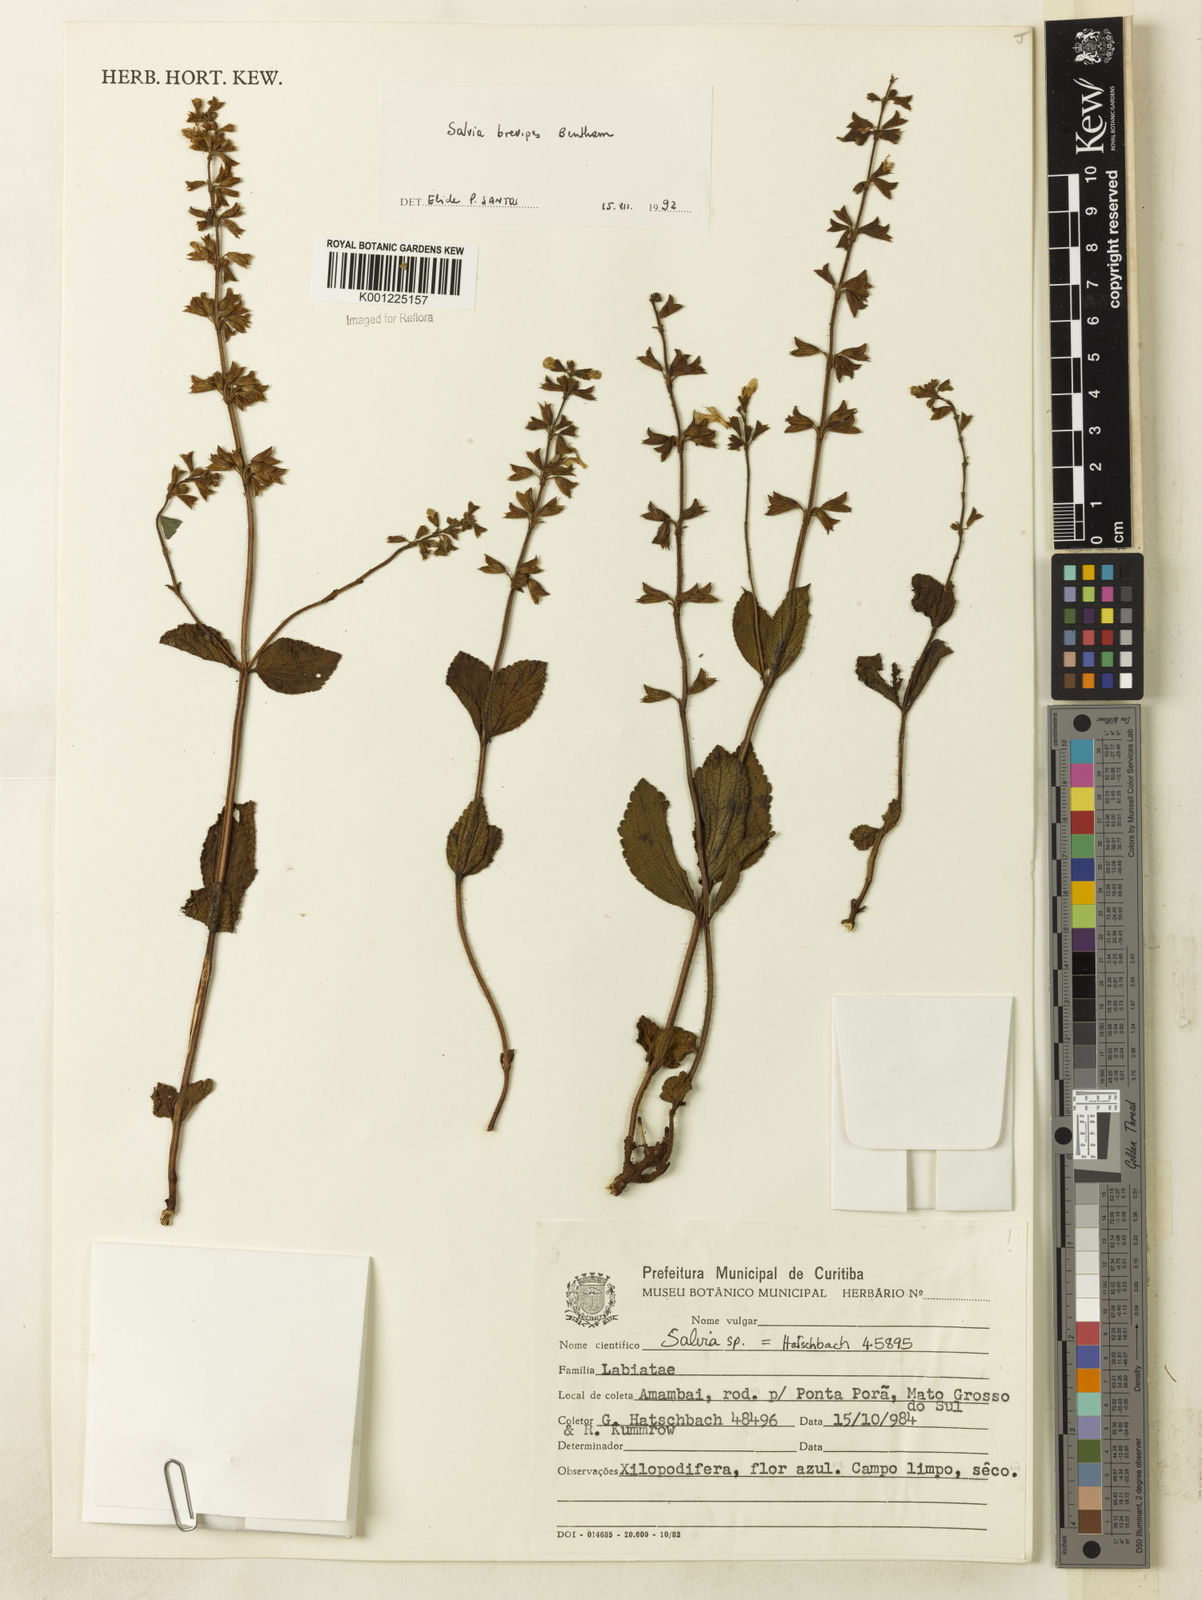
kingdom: Plantae
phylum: Tracheophyta
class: Magnoliopsida
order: Lamiales
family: Lamiaceae
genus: Salvia
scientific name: Salvia brevipes
